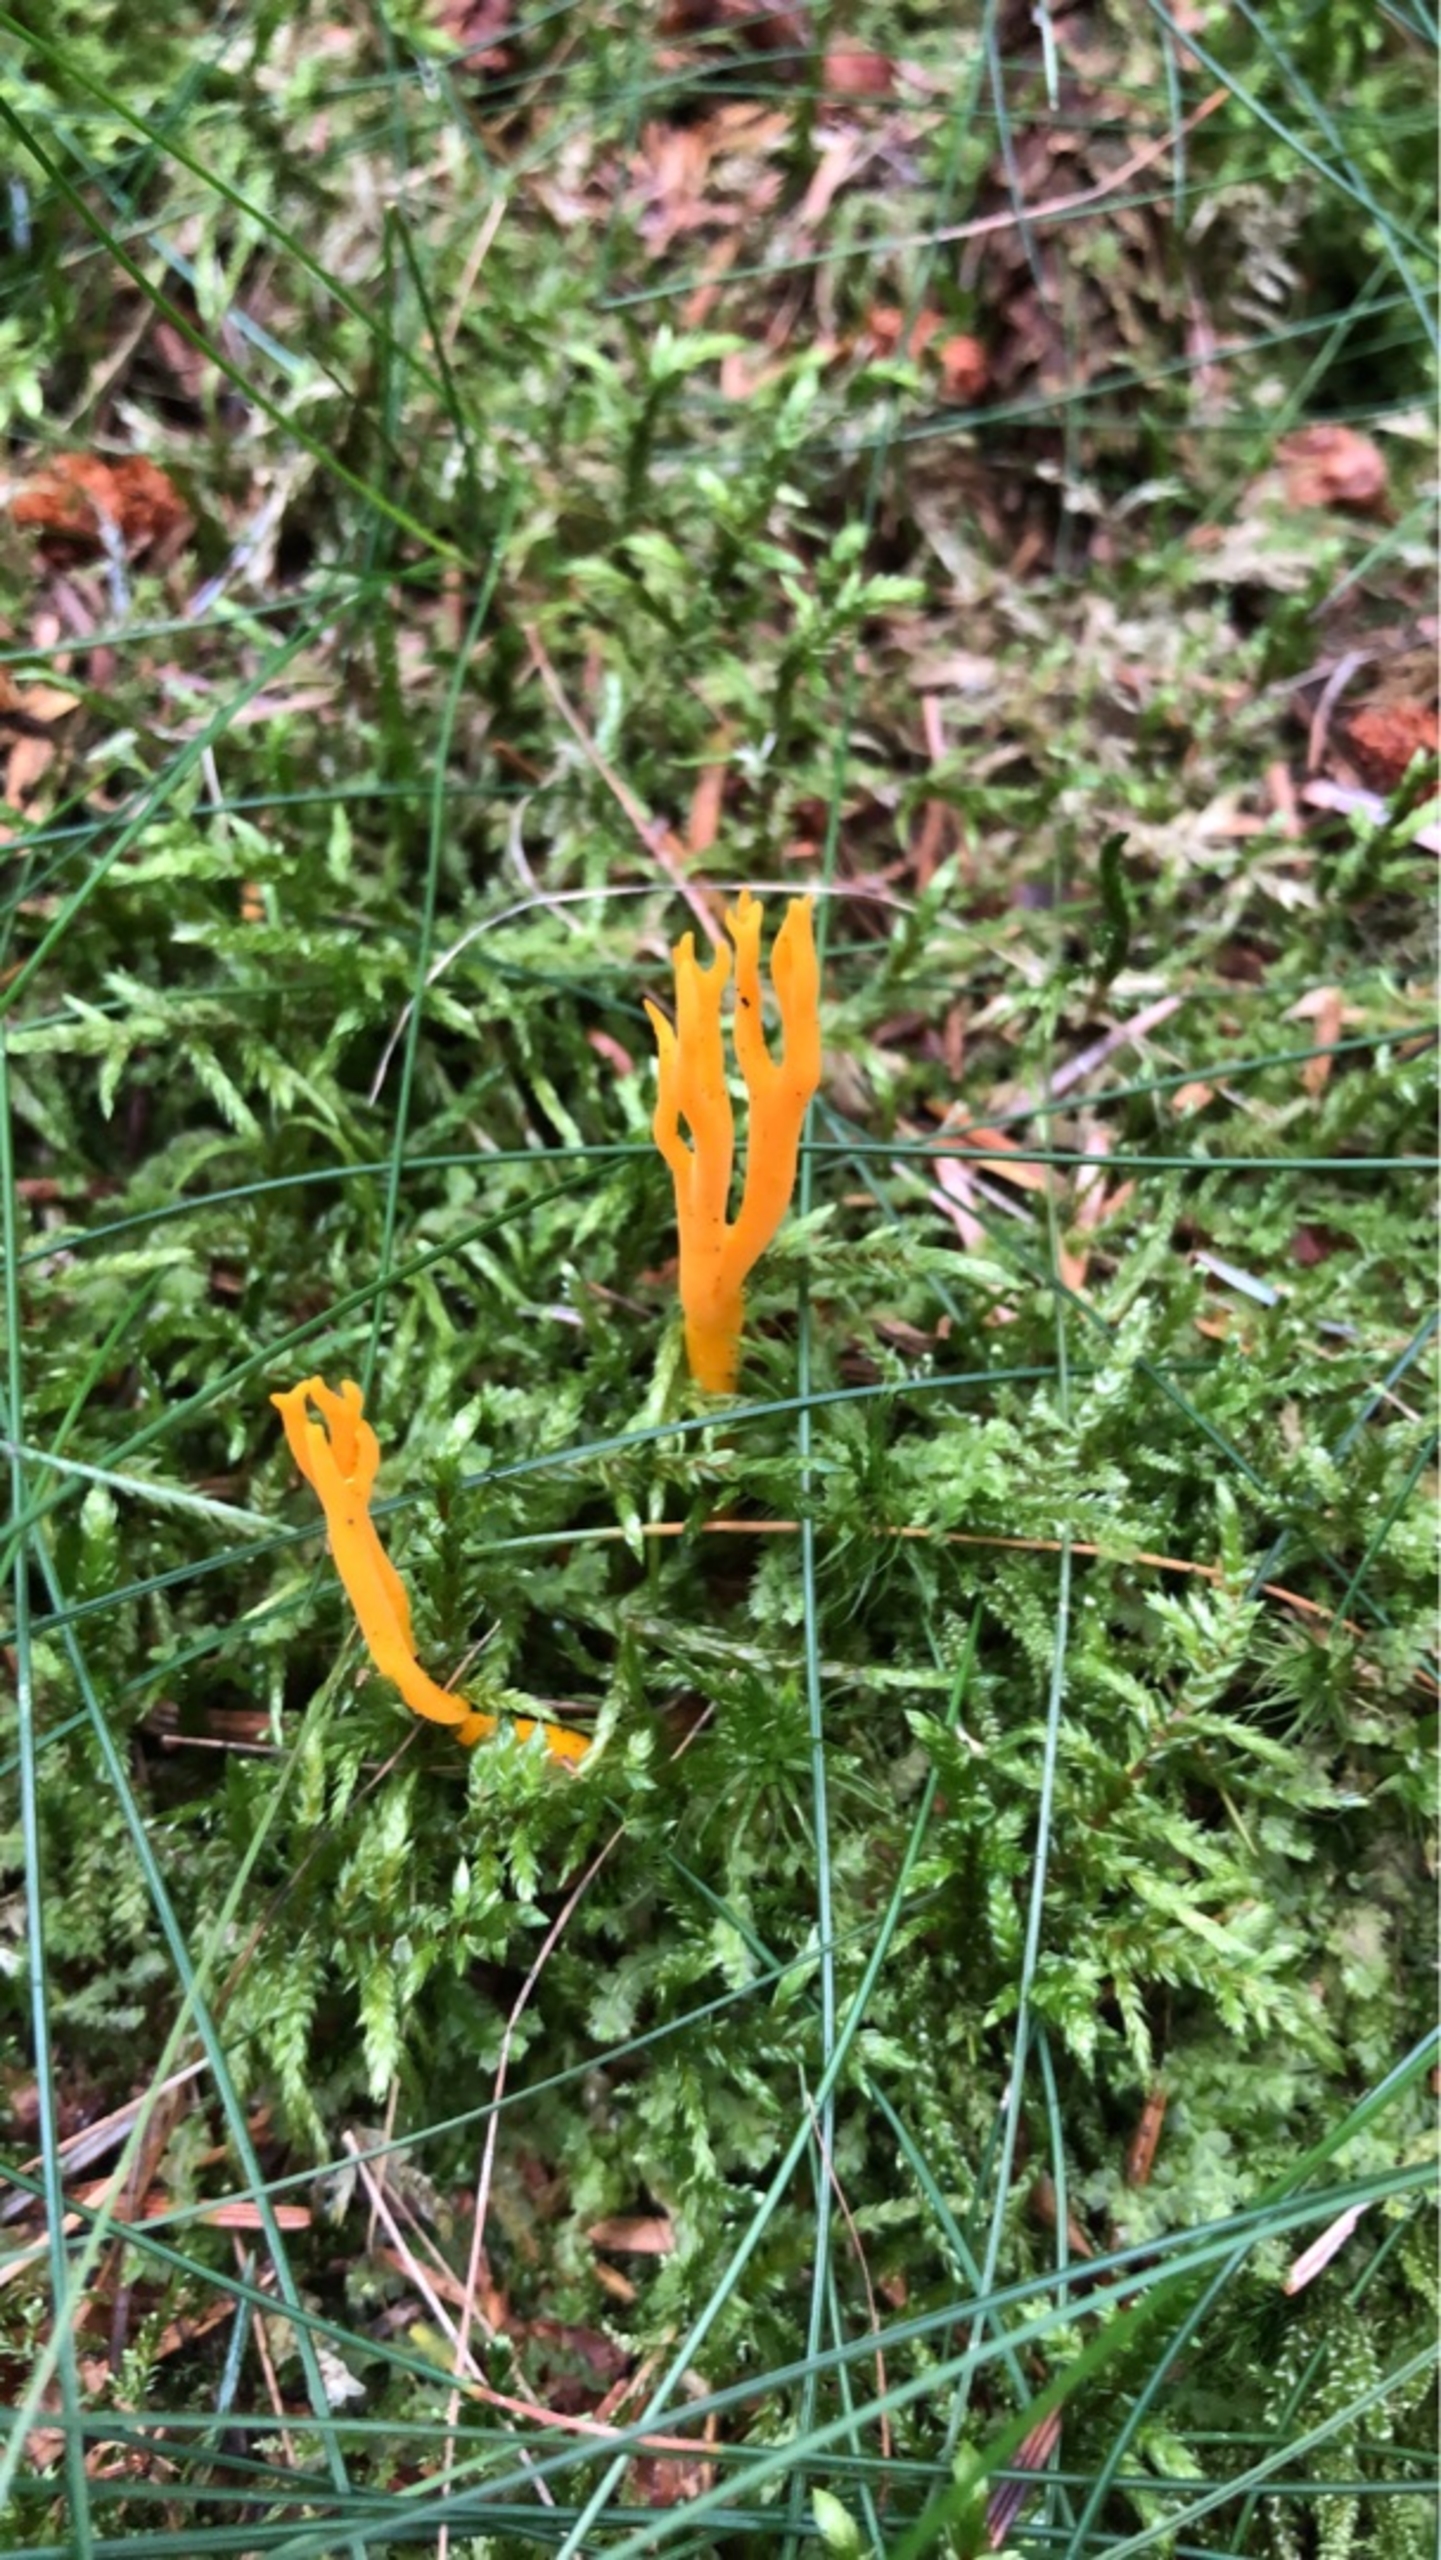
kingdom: Fungi
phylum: Basidiomycota
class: Dacrymycetes
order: Dacrymycetales
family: Dacrymycetaceae
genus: Calocera
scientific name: Calocera viscosa
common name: Almindelig guldgaffel
